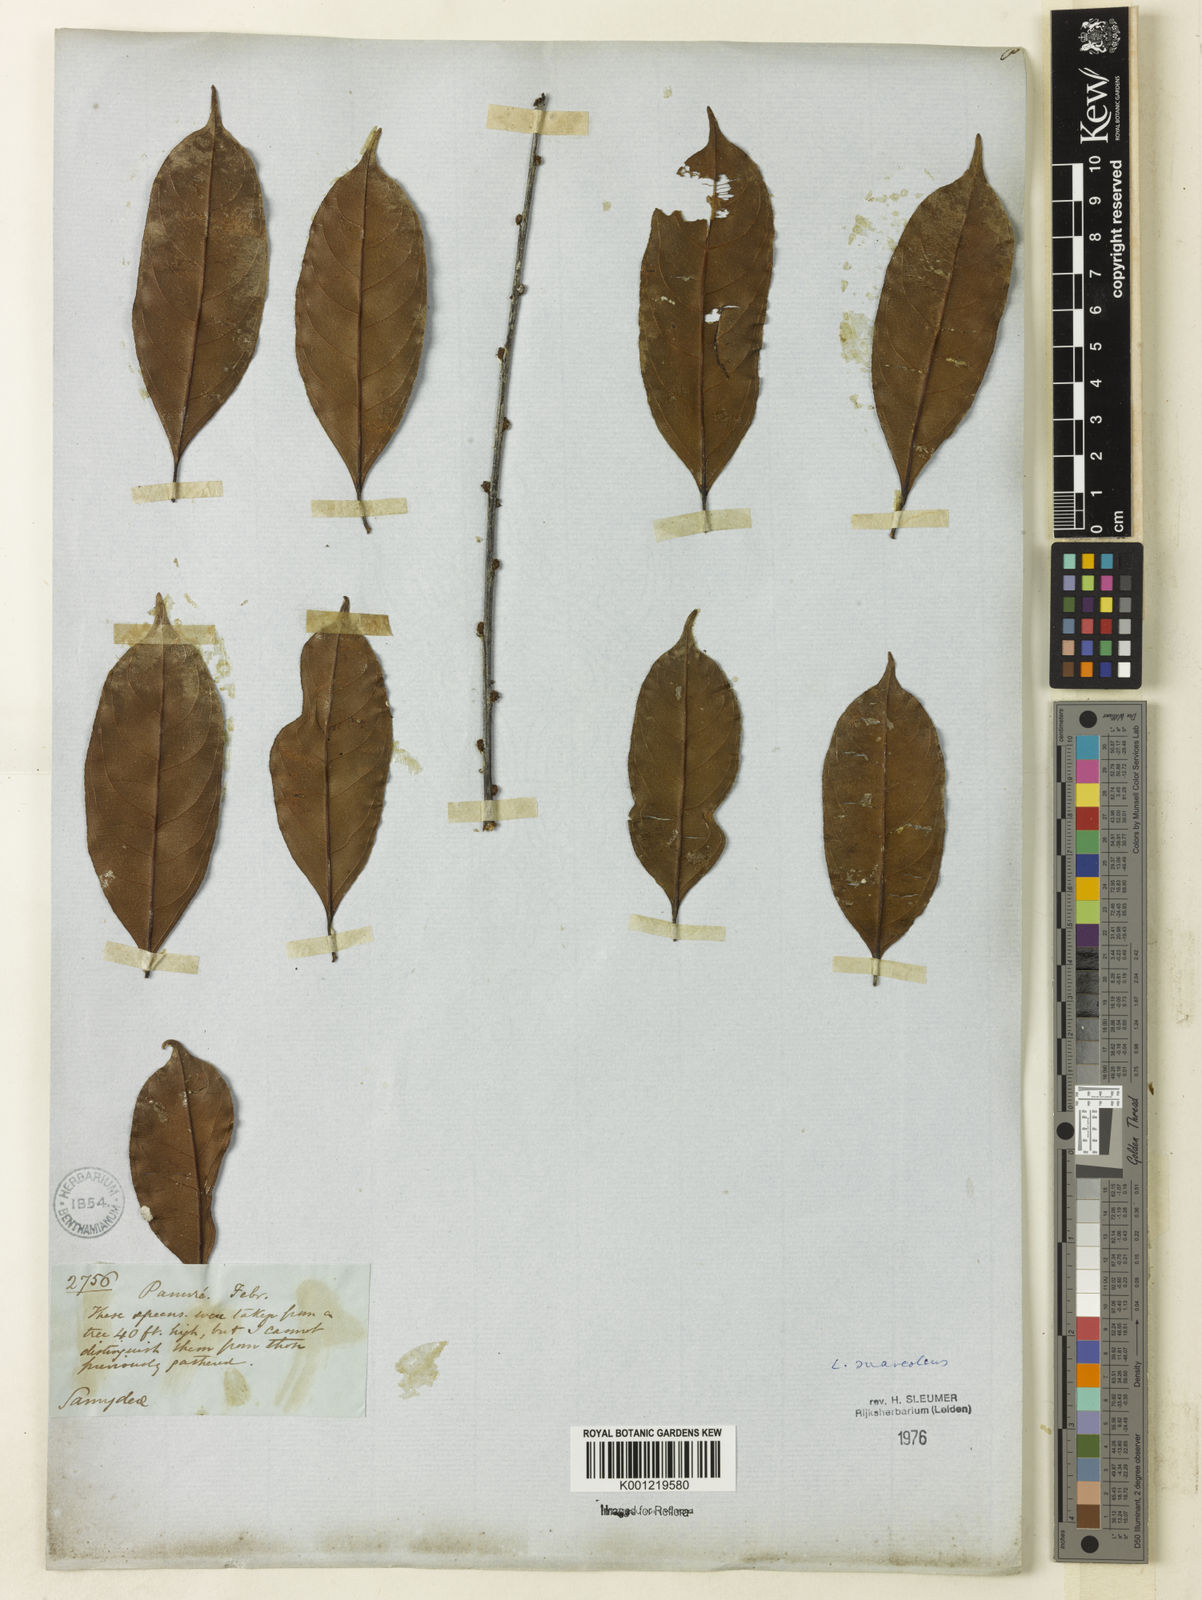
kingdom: Plantae
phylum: Tracheophyta
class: Magnoliopsida
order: Malpighiales
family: Salicaceae
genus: Casearia
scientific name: Casearia suaveolens
